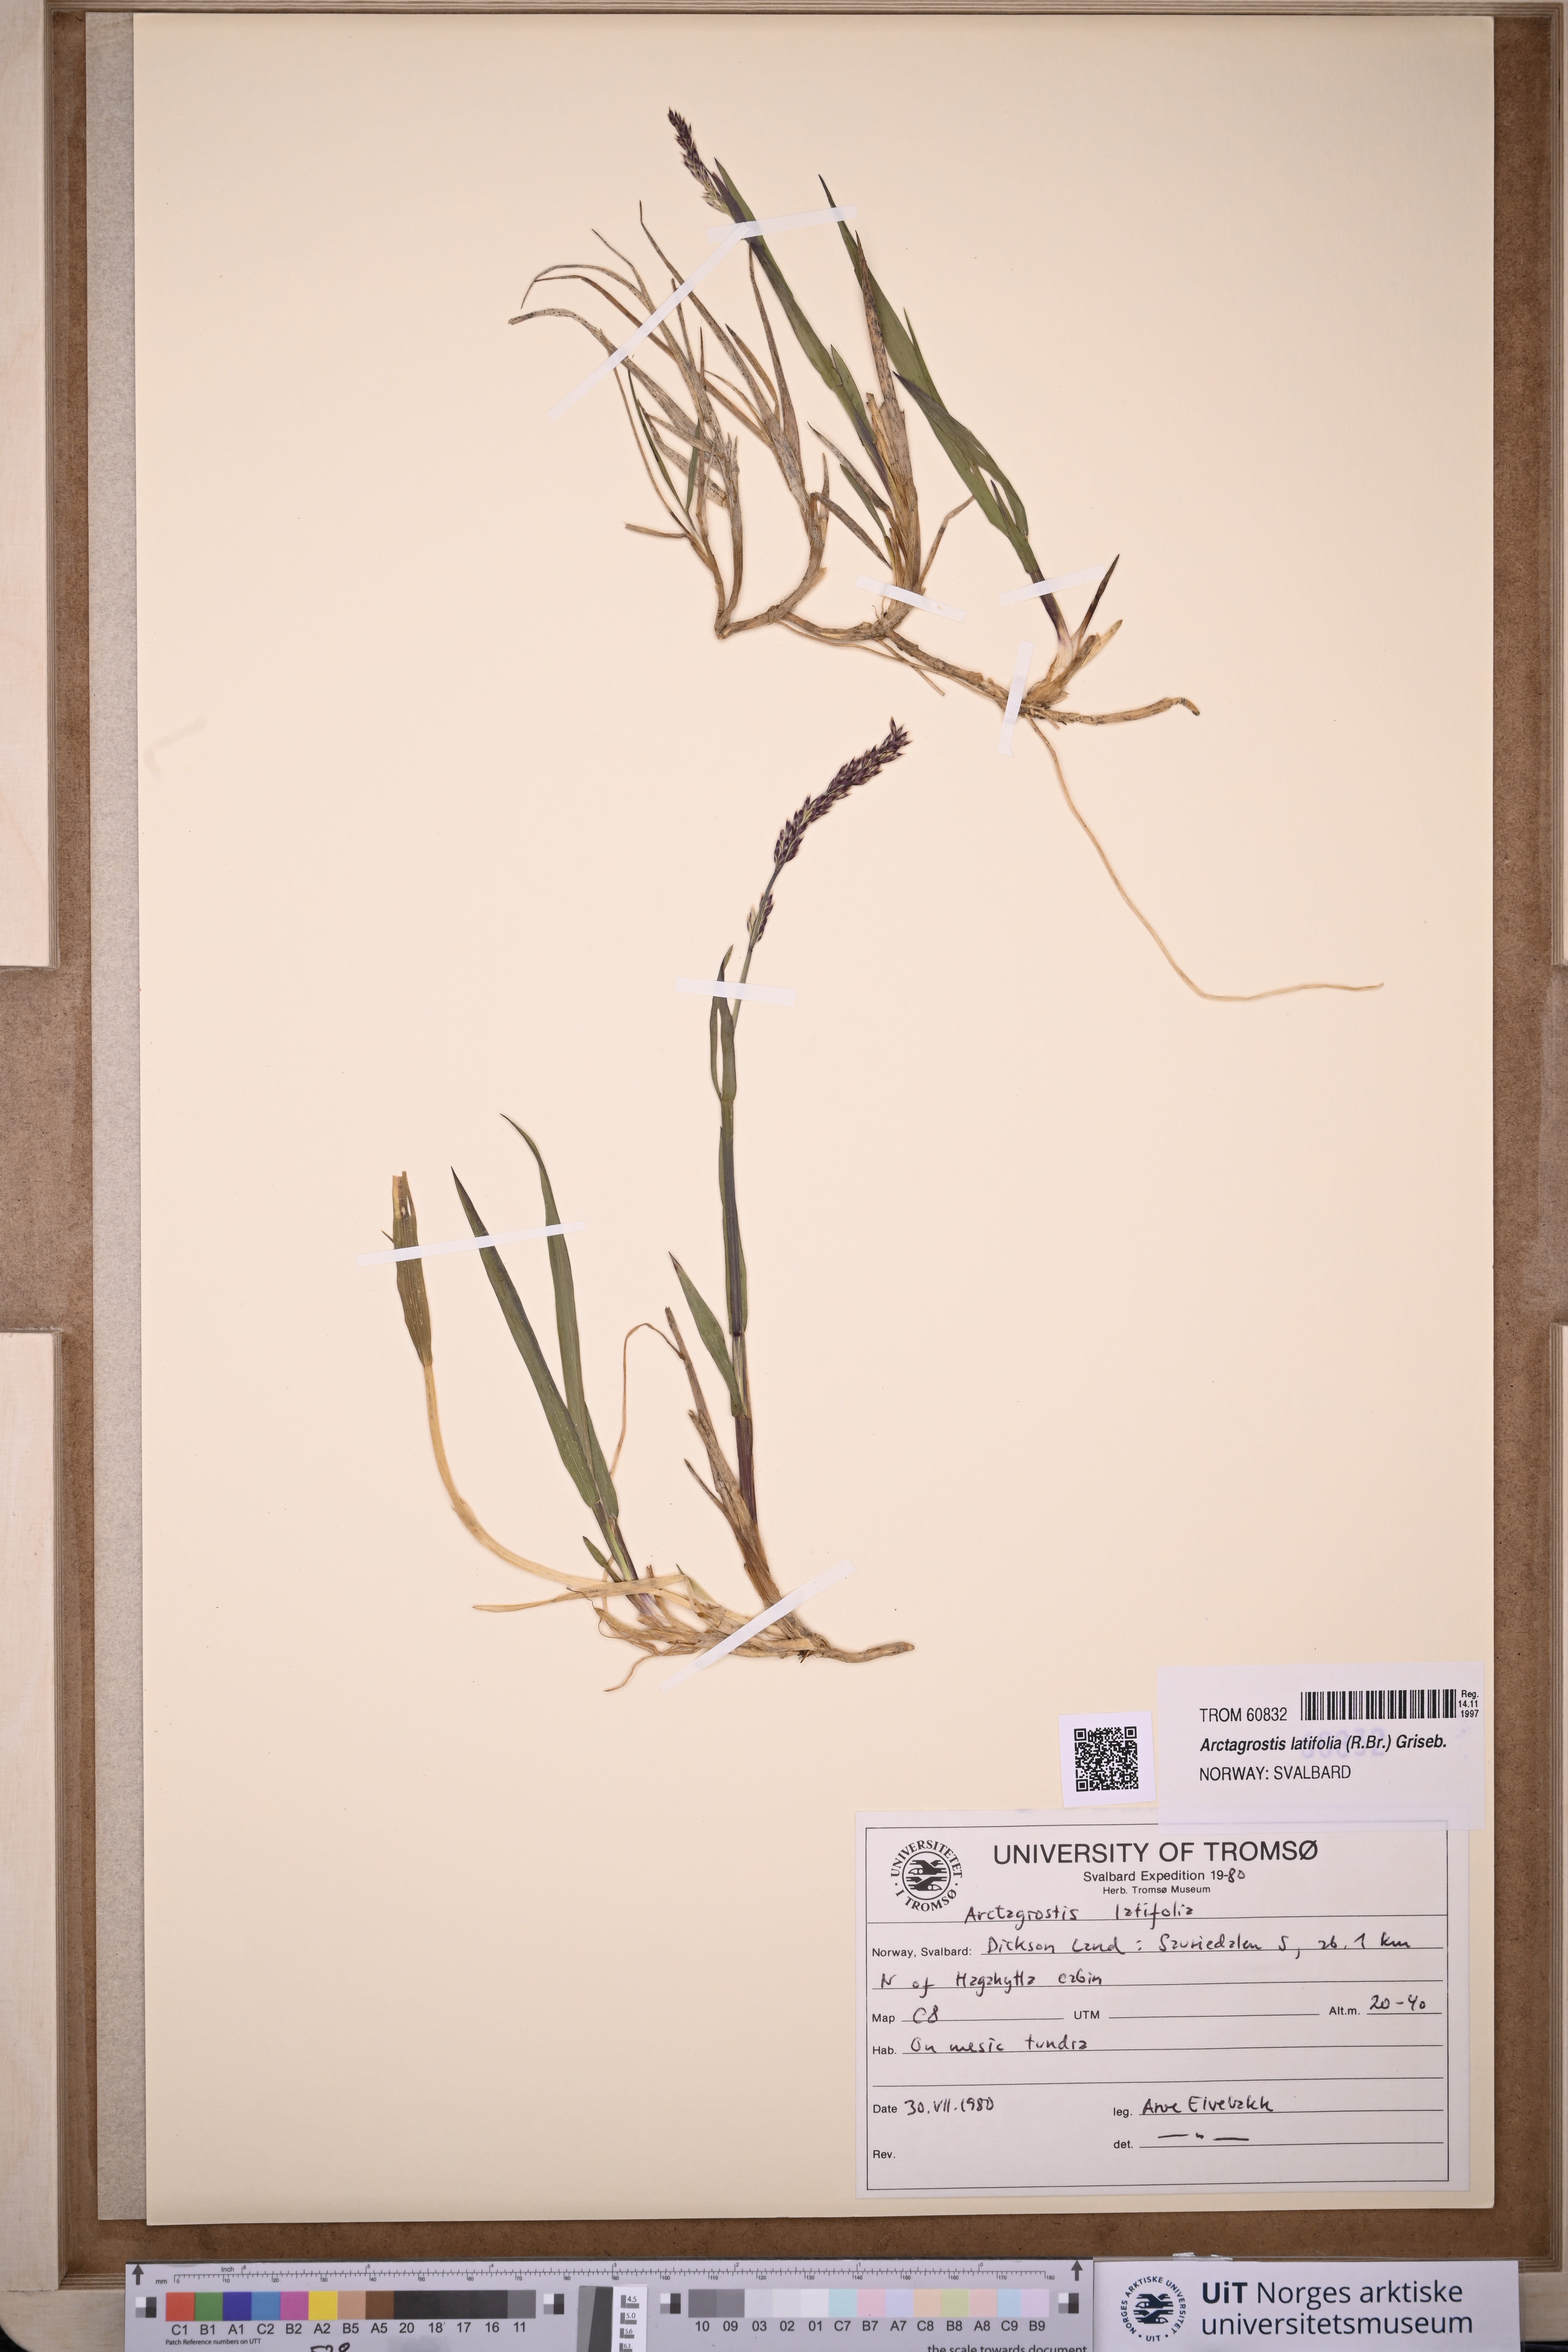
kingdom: Plantae
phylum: Tracheophyta
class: Liliopsida
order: Poales
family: Poaceae
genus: Arctagrostis
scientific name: Arctagrostis latifolia
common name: Arctic grass
